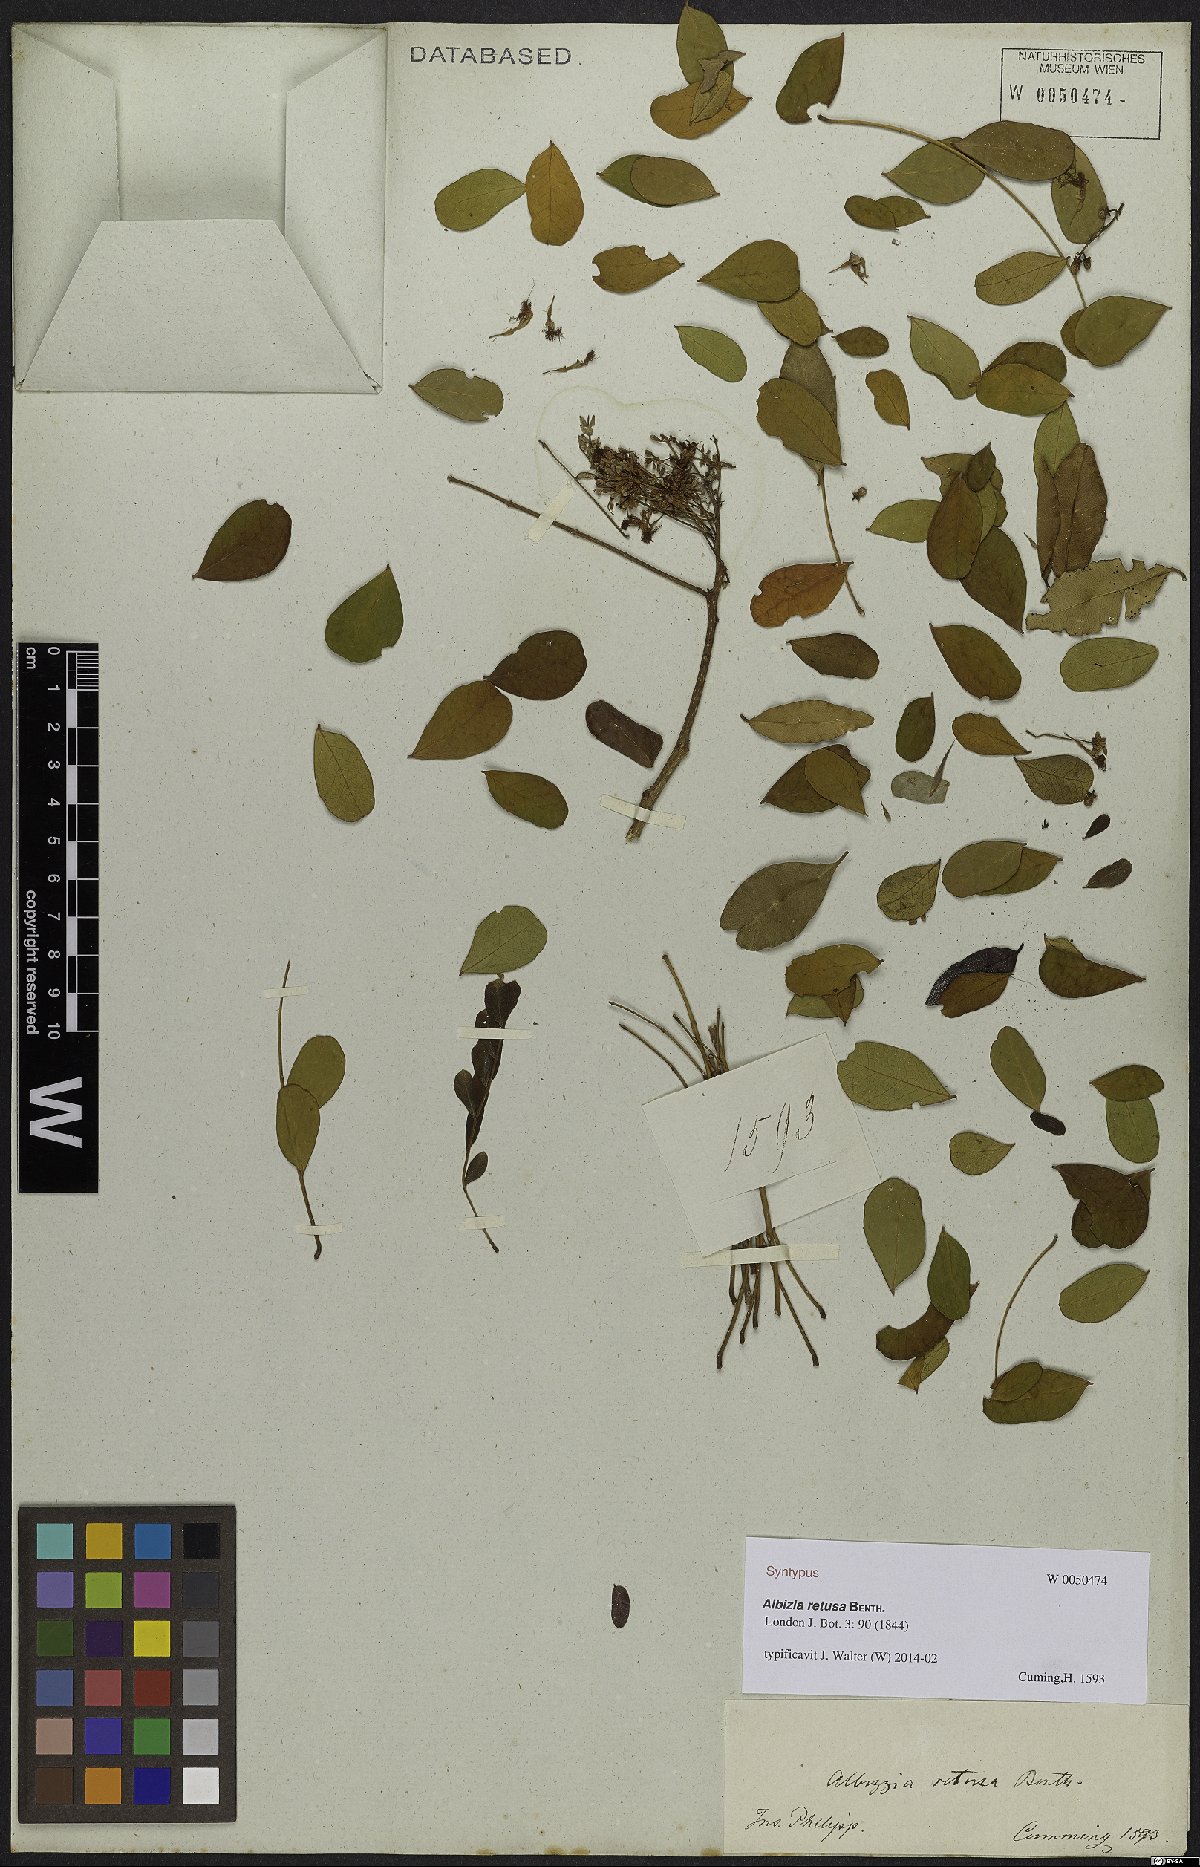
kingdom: Plantae
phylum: Tracheophyta
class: Magnoliopsida
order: Fabales
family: Fabaceae
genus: Albizia
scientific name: Albizia retusa
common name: Sea albizia
